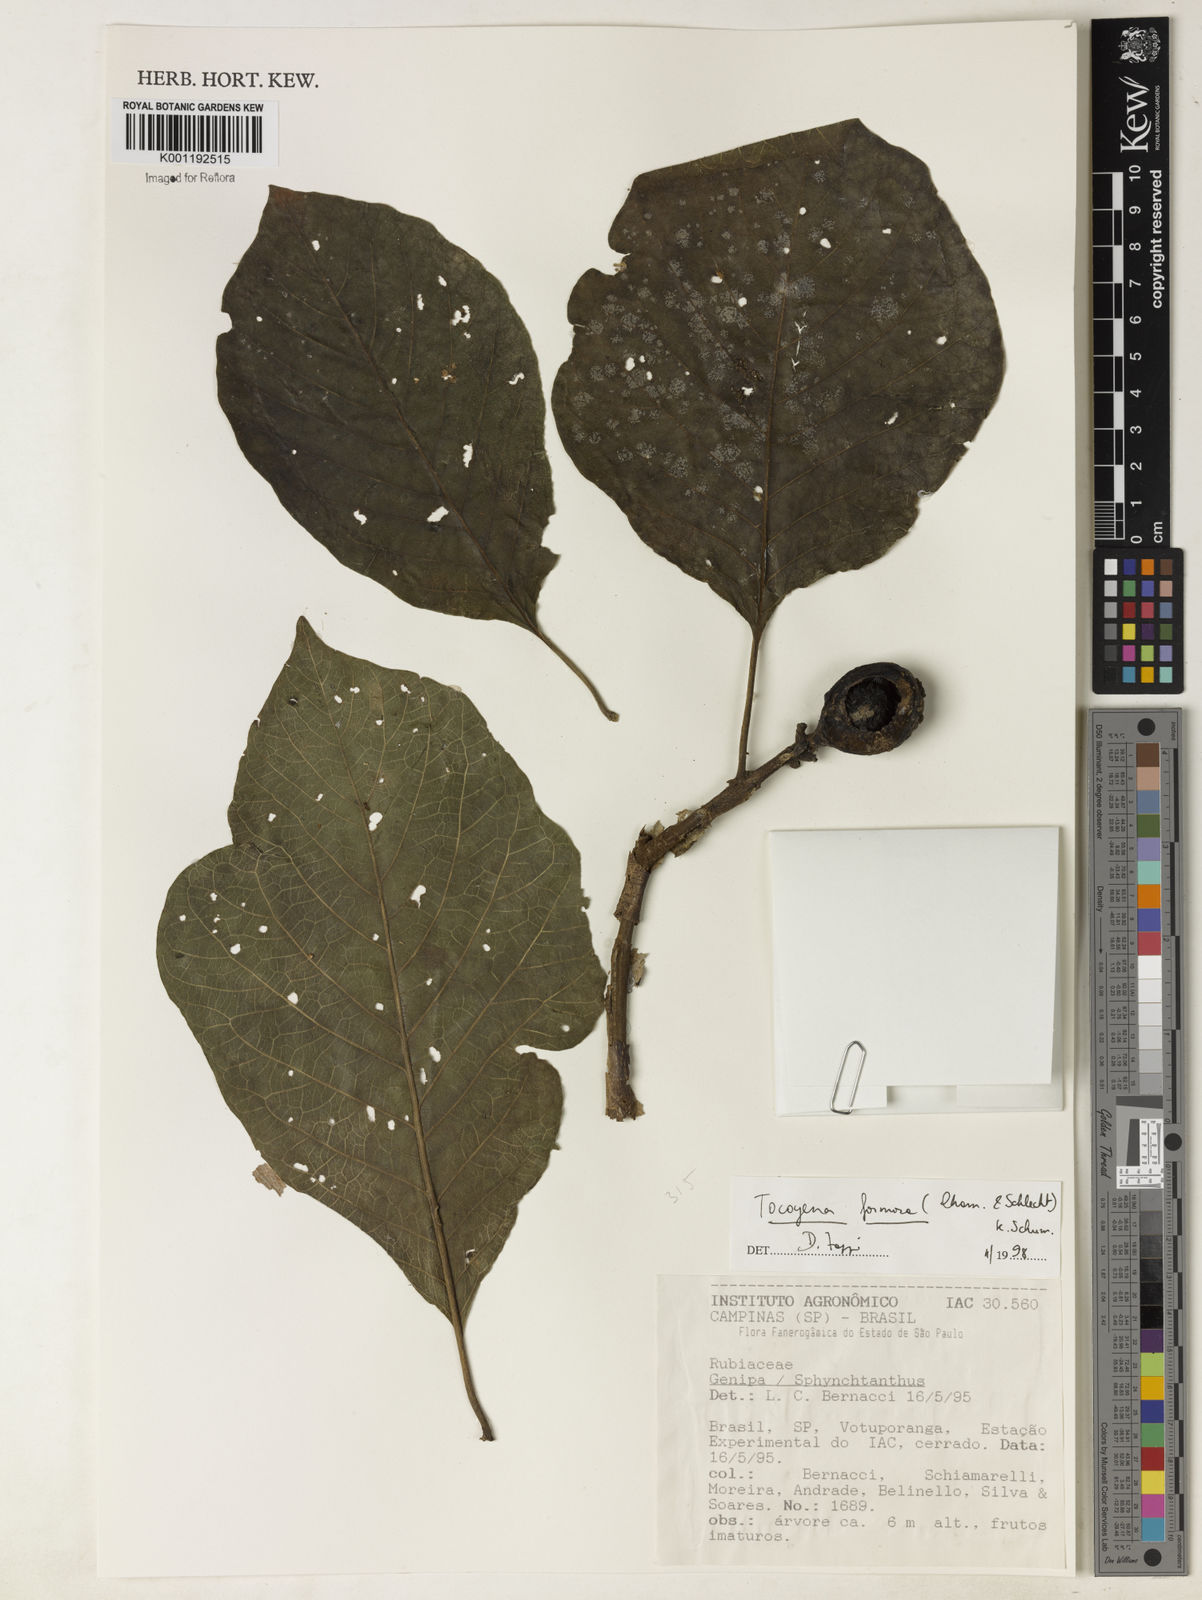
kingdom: Plantae
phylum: Tracheophyta
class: Magnoliopsida
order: Gentianales
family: Rubiaceae
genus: Tocoyena
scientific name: Tocoyena formosa
